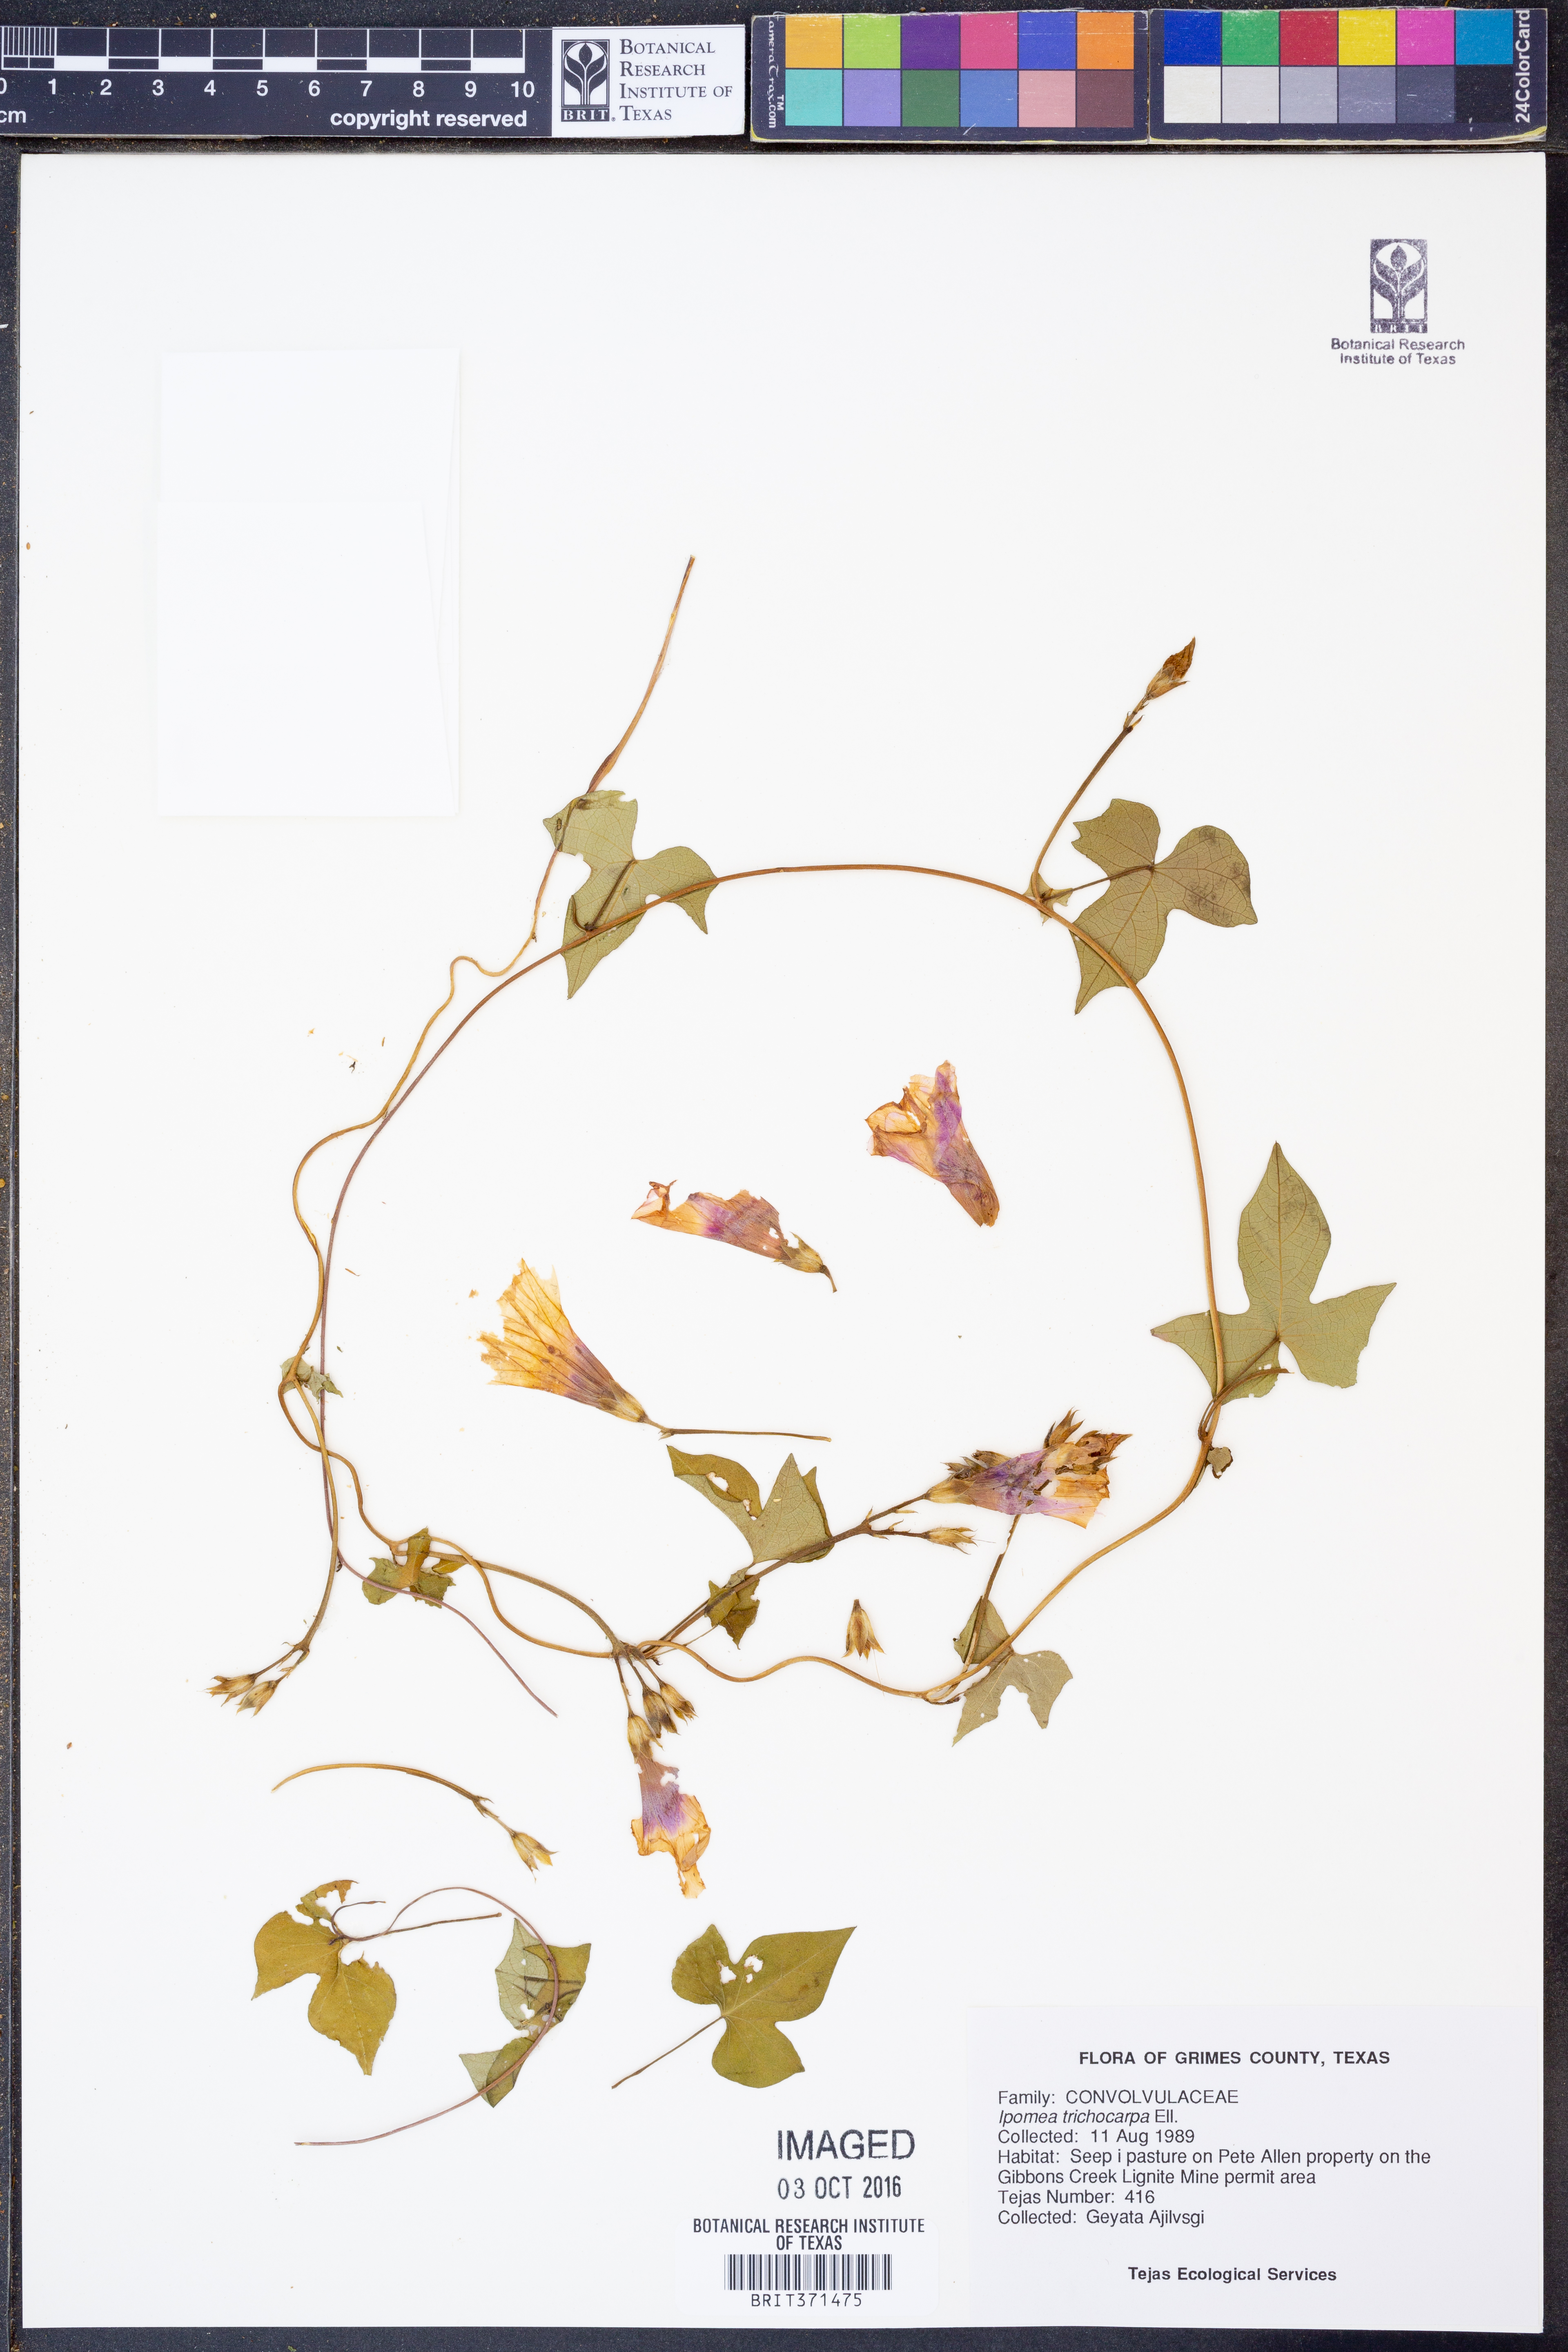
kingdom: Plantae
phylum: Tracheophyta
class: Magnoliopsida
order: Solanales
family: Convolvulaceae
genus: Ipomoea
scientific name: Ipomoea cordatotriloba
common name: Cotton morning glory
